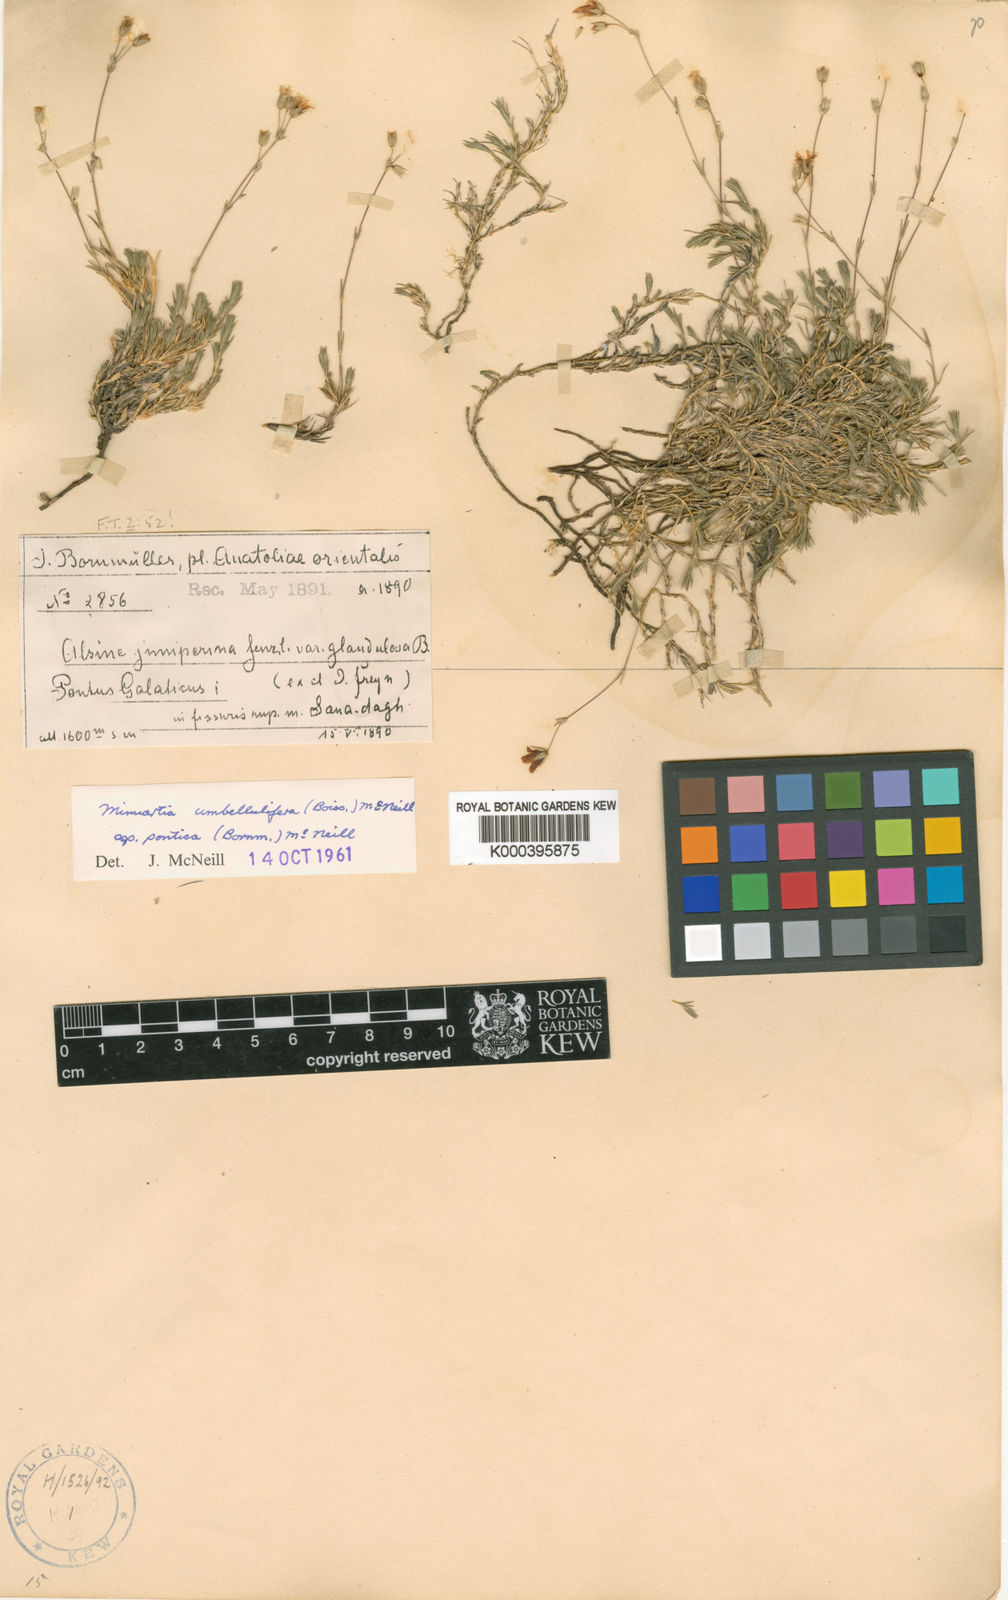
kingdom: Plantae
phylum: Tracheophyta
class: Magnoliopsida
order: Caryophyllales
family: Caryophyllaceae
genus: Sabulina
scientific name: Sabulina umbellulifera
